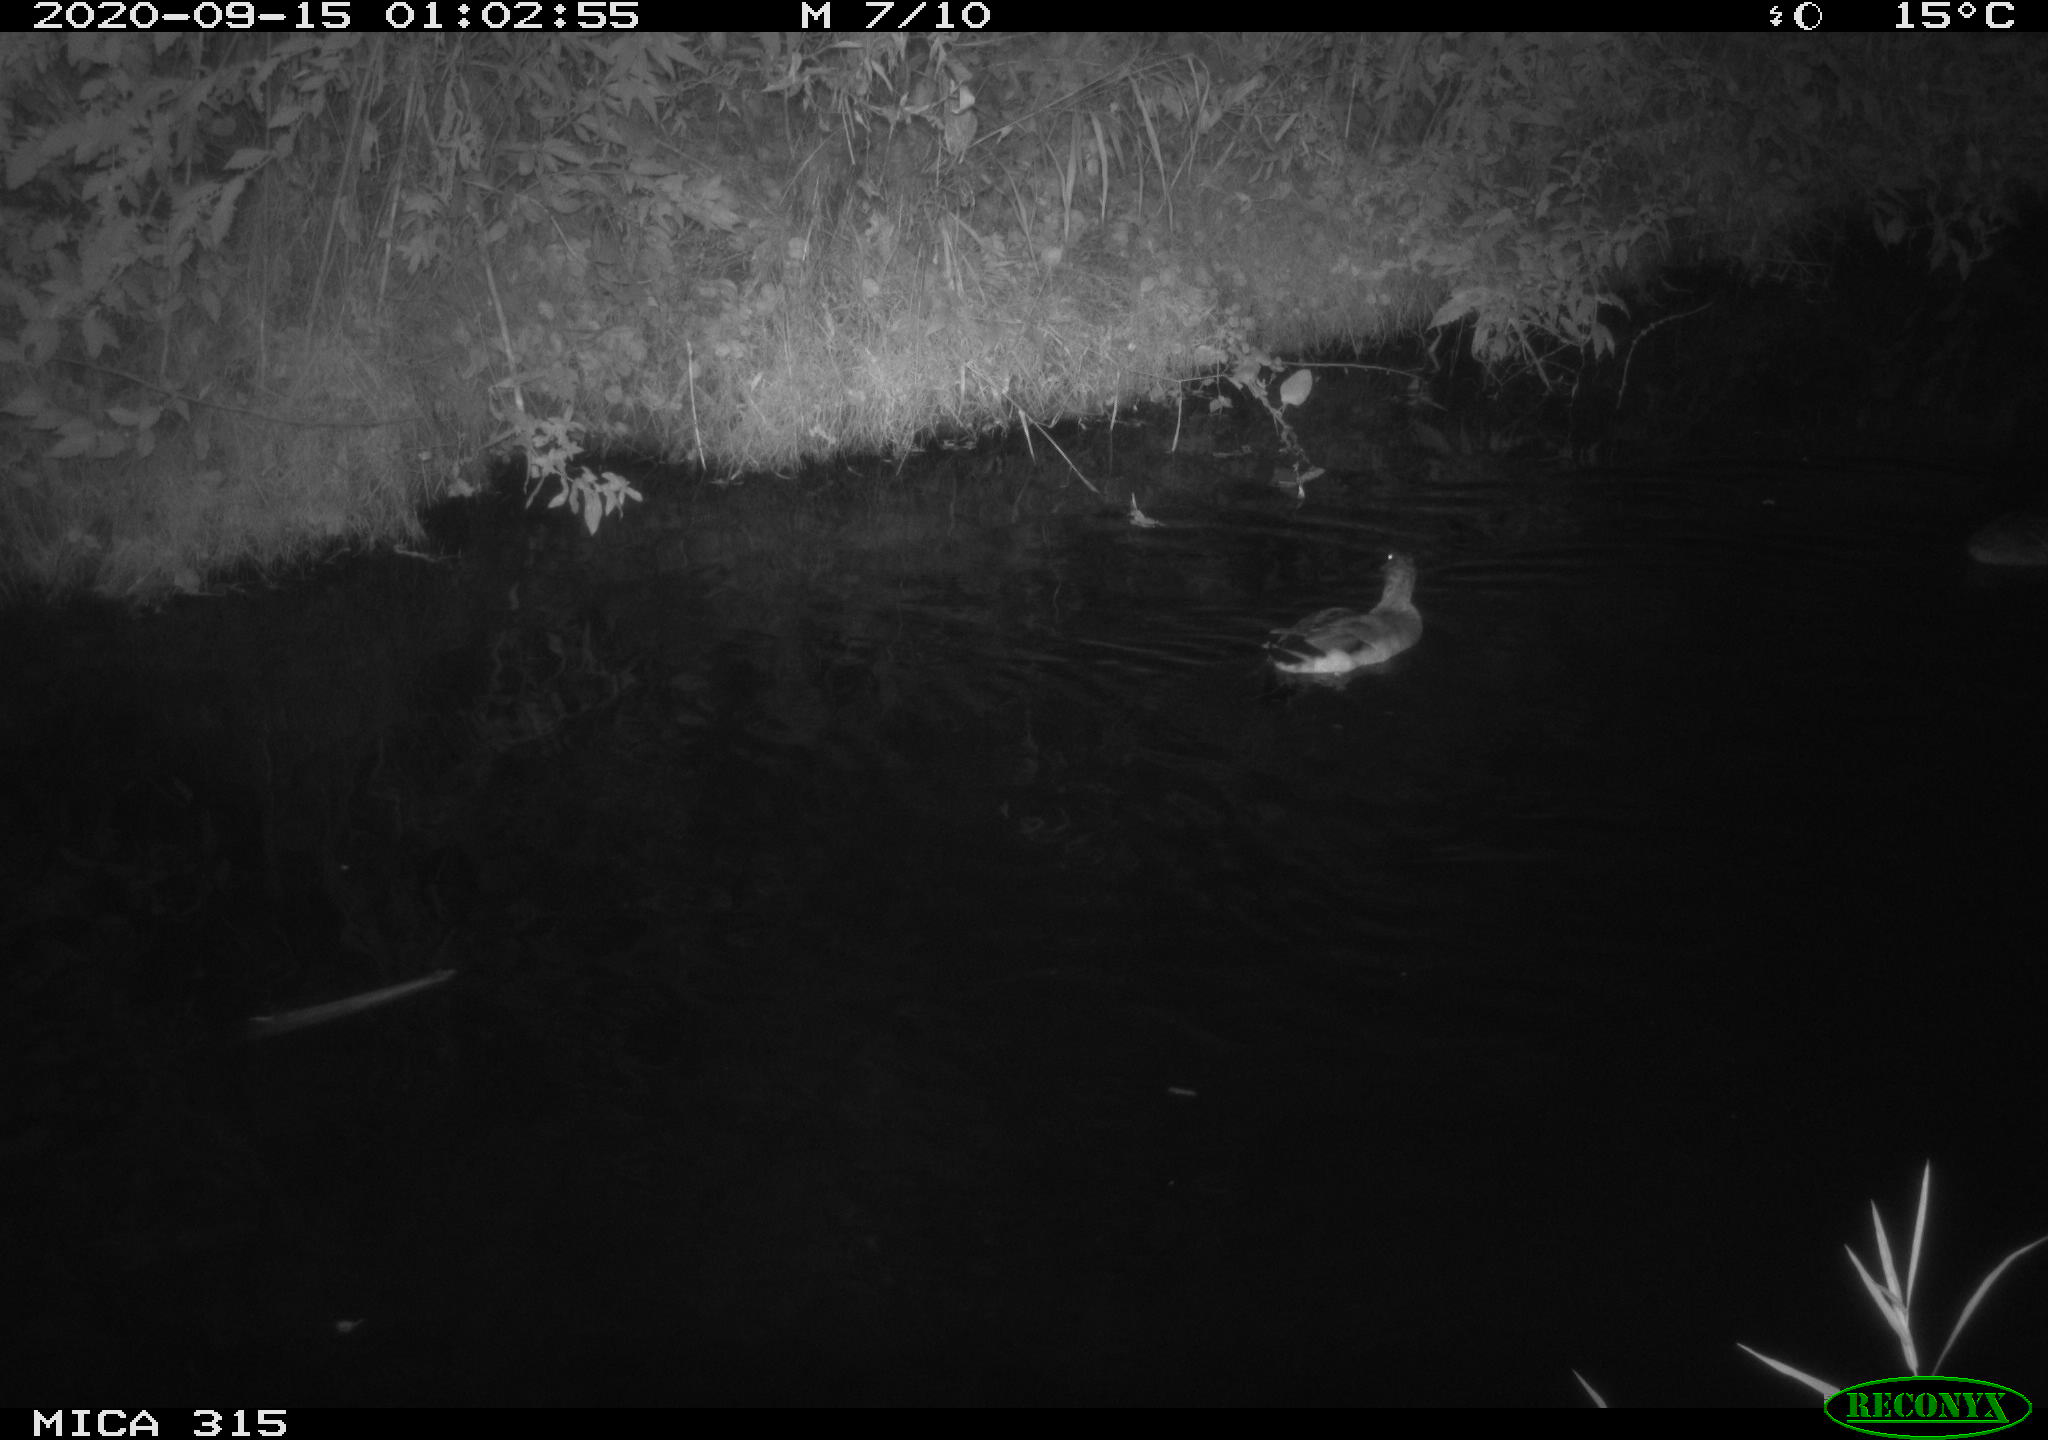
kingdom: Animalia
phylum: Chordata
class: Aves
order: Anseriformes
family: Anatidae
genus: Anas
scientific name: Anas platyrhynchos
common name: Mallard
